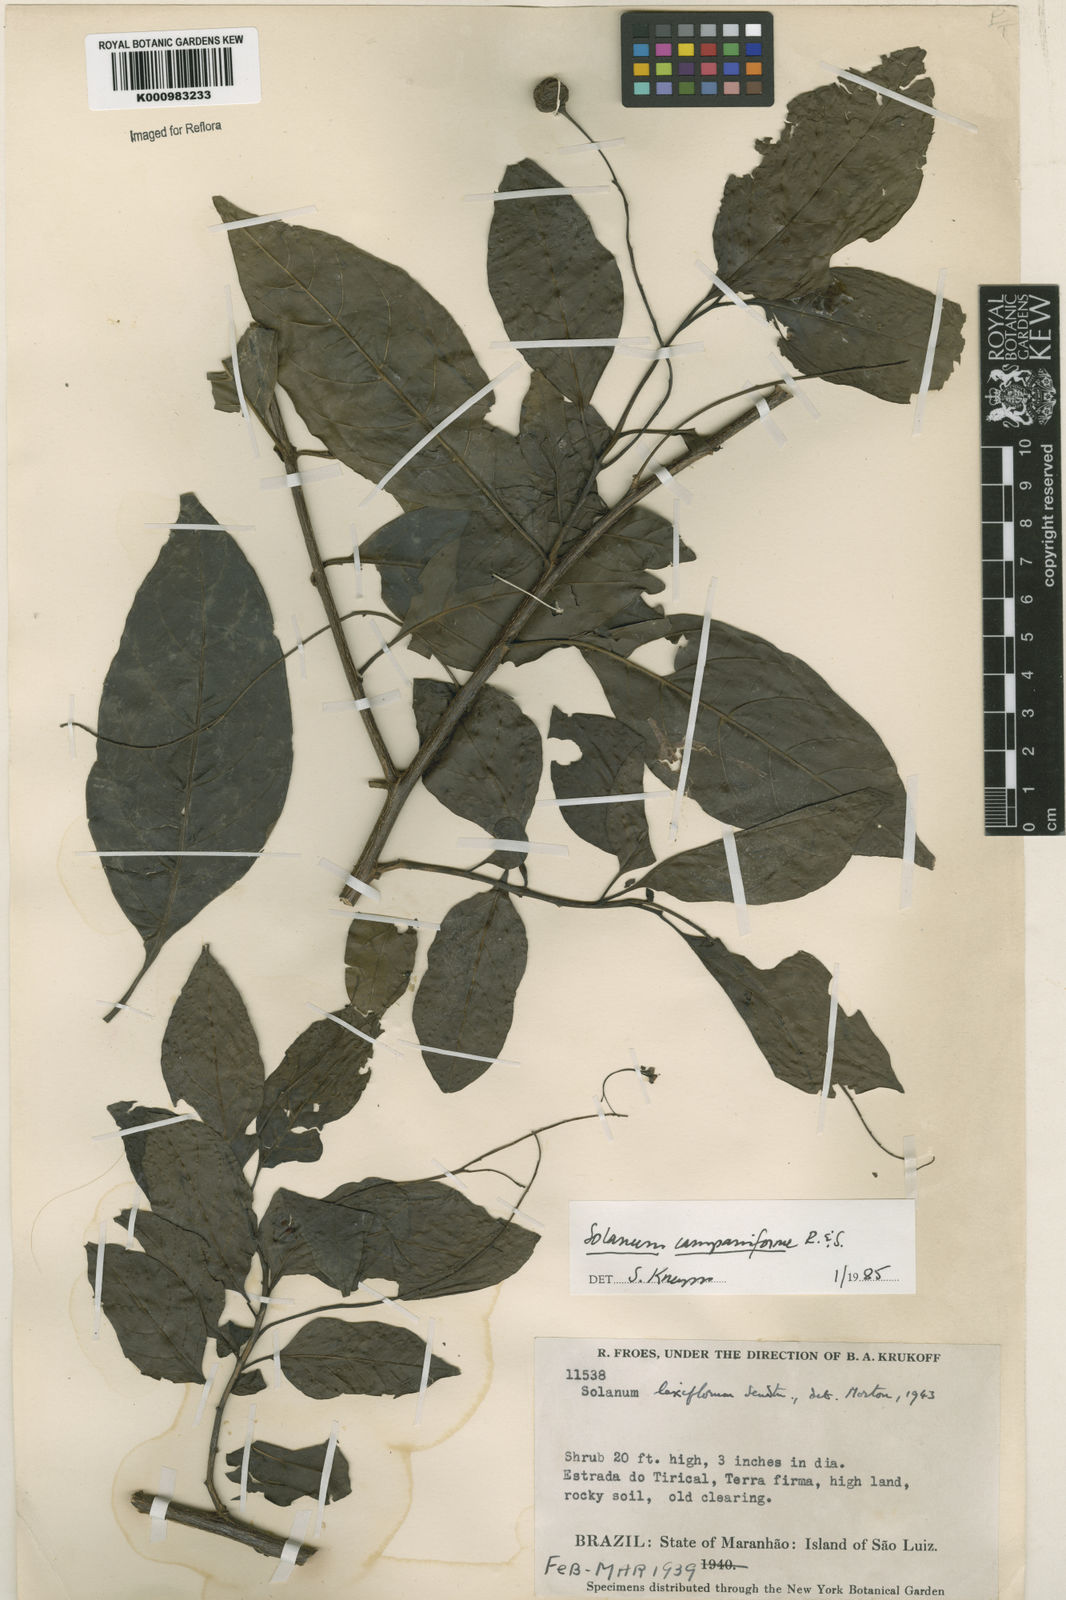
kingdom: Plantae
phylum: Tracheophyta
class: Magnoliopsida
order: Solanales
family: Solanaceae
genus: Solanum
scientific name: Solanum campaniforme
